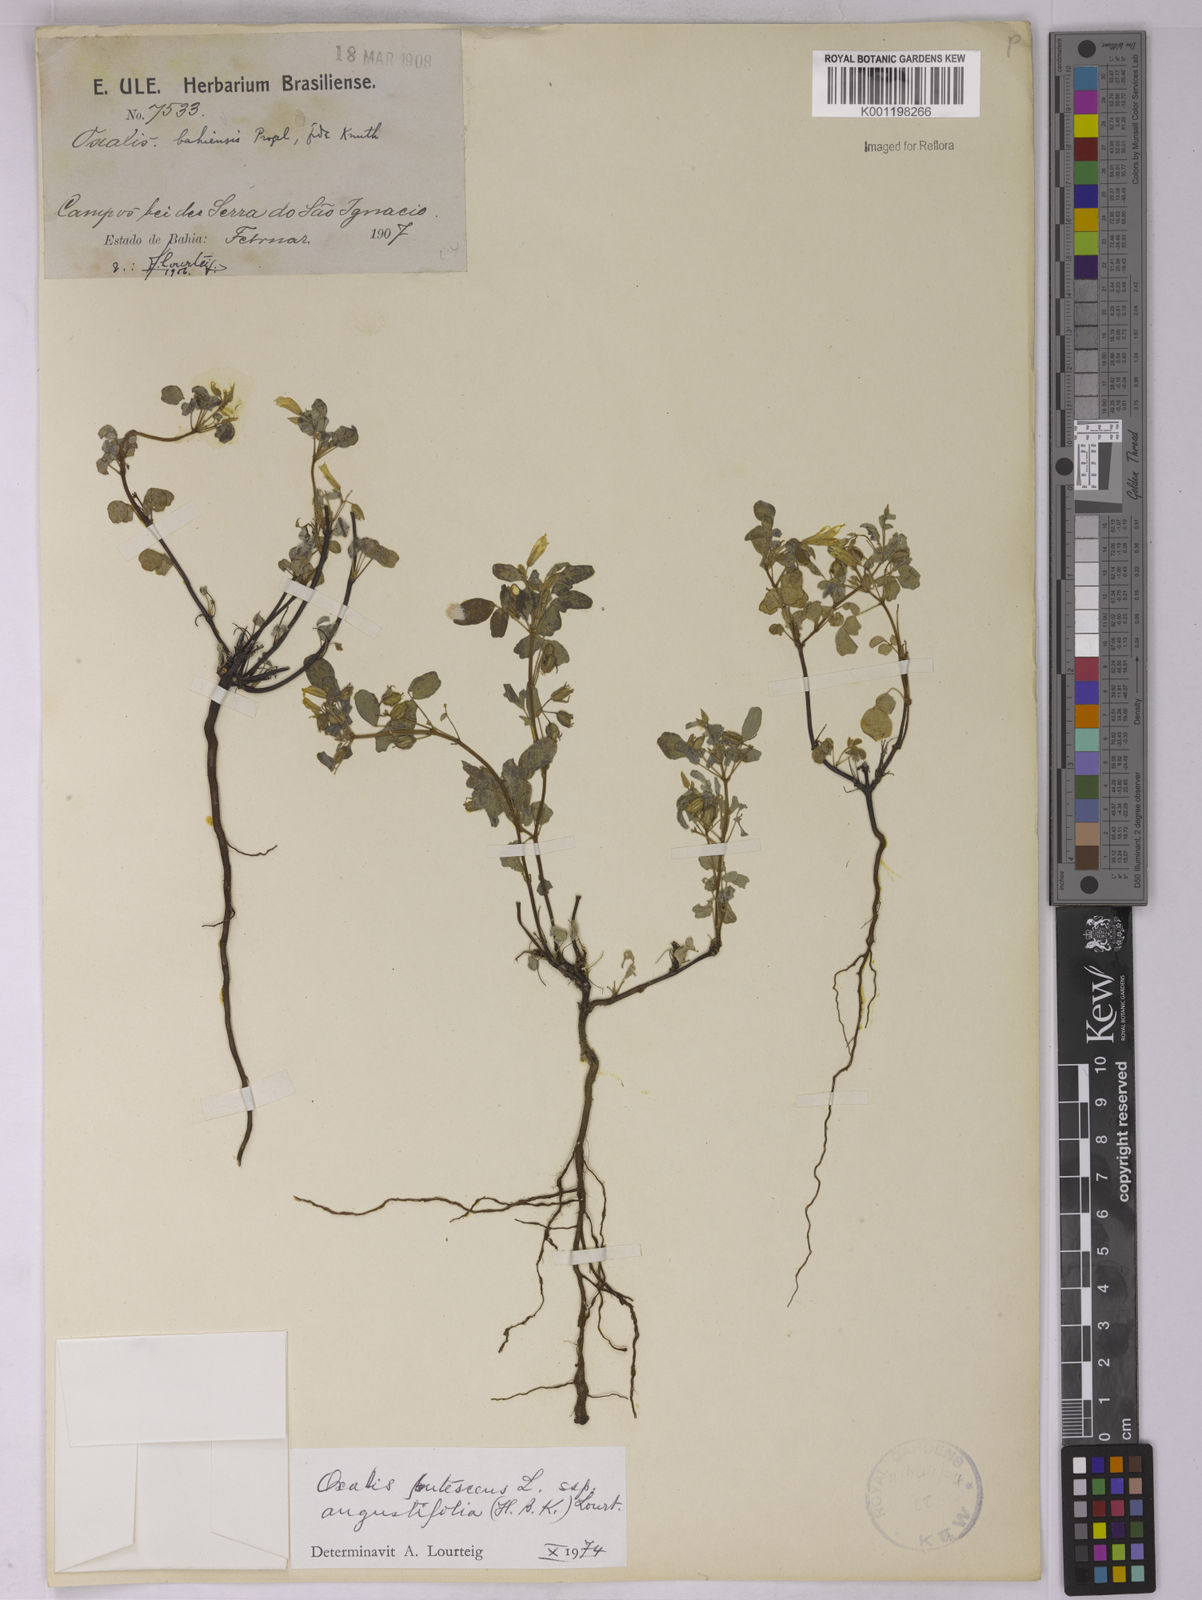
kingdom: Plantae
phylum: Tracheophyta
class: Magnoliopsida
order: Oxalidales
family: Oxalidaceae
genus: Oxalis
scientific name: Oxalis frutescens
